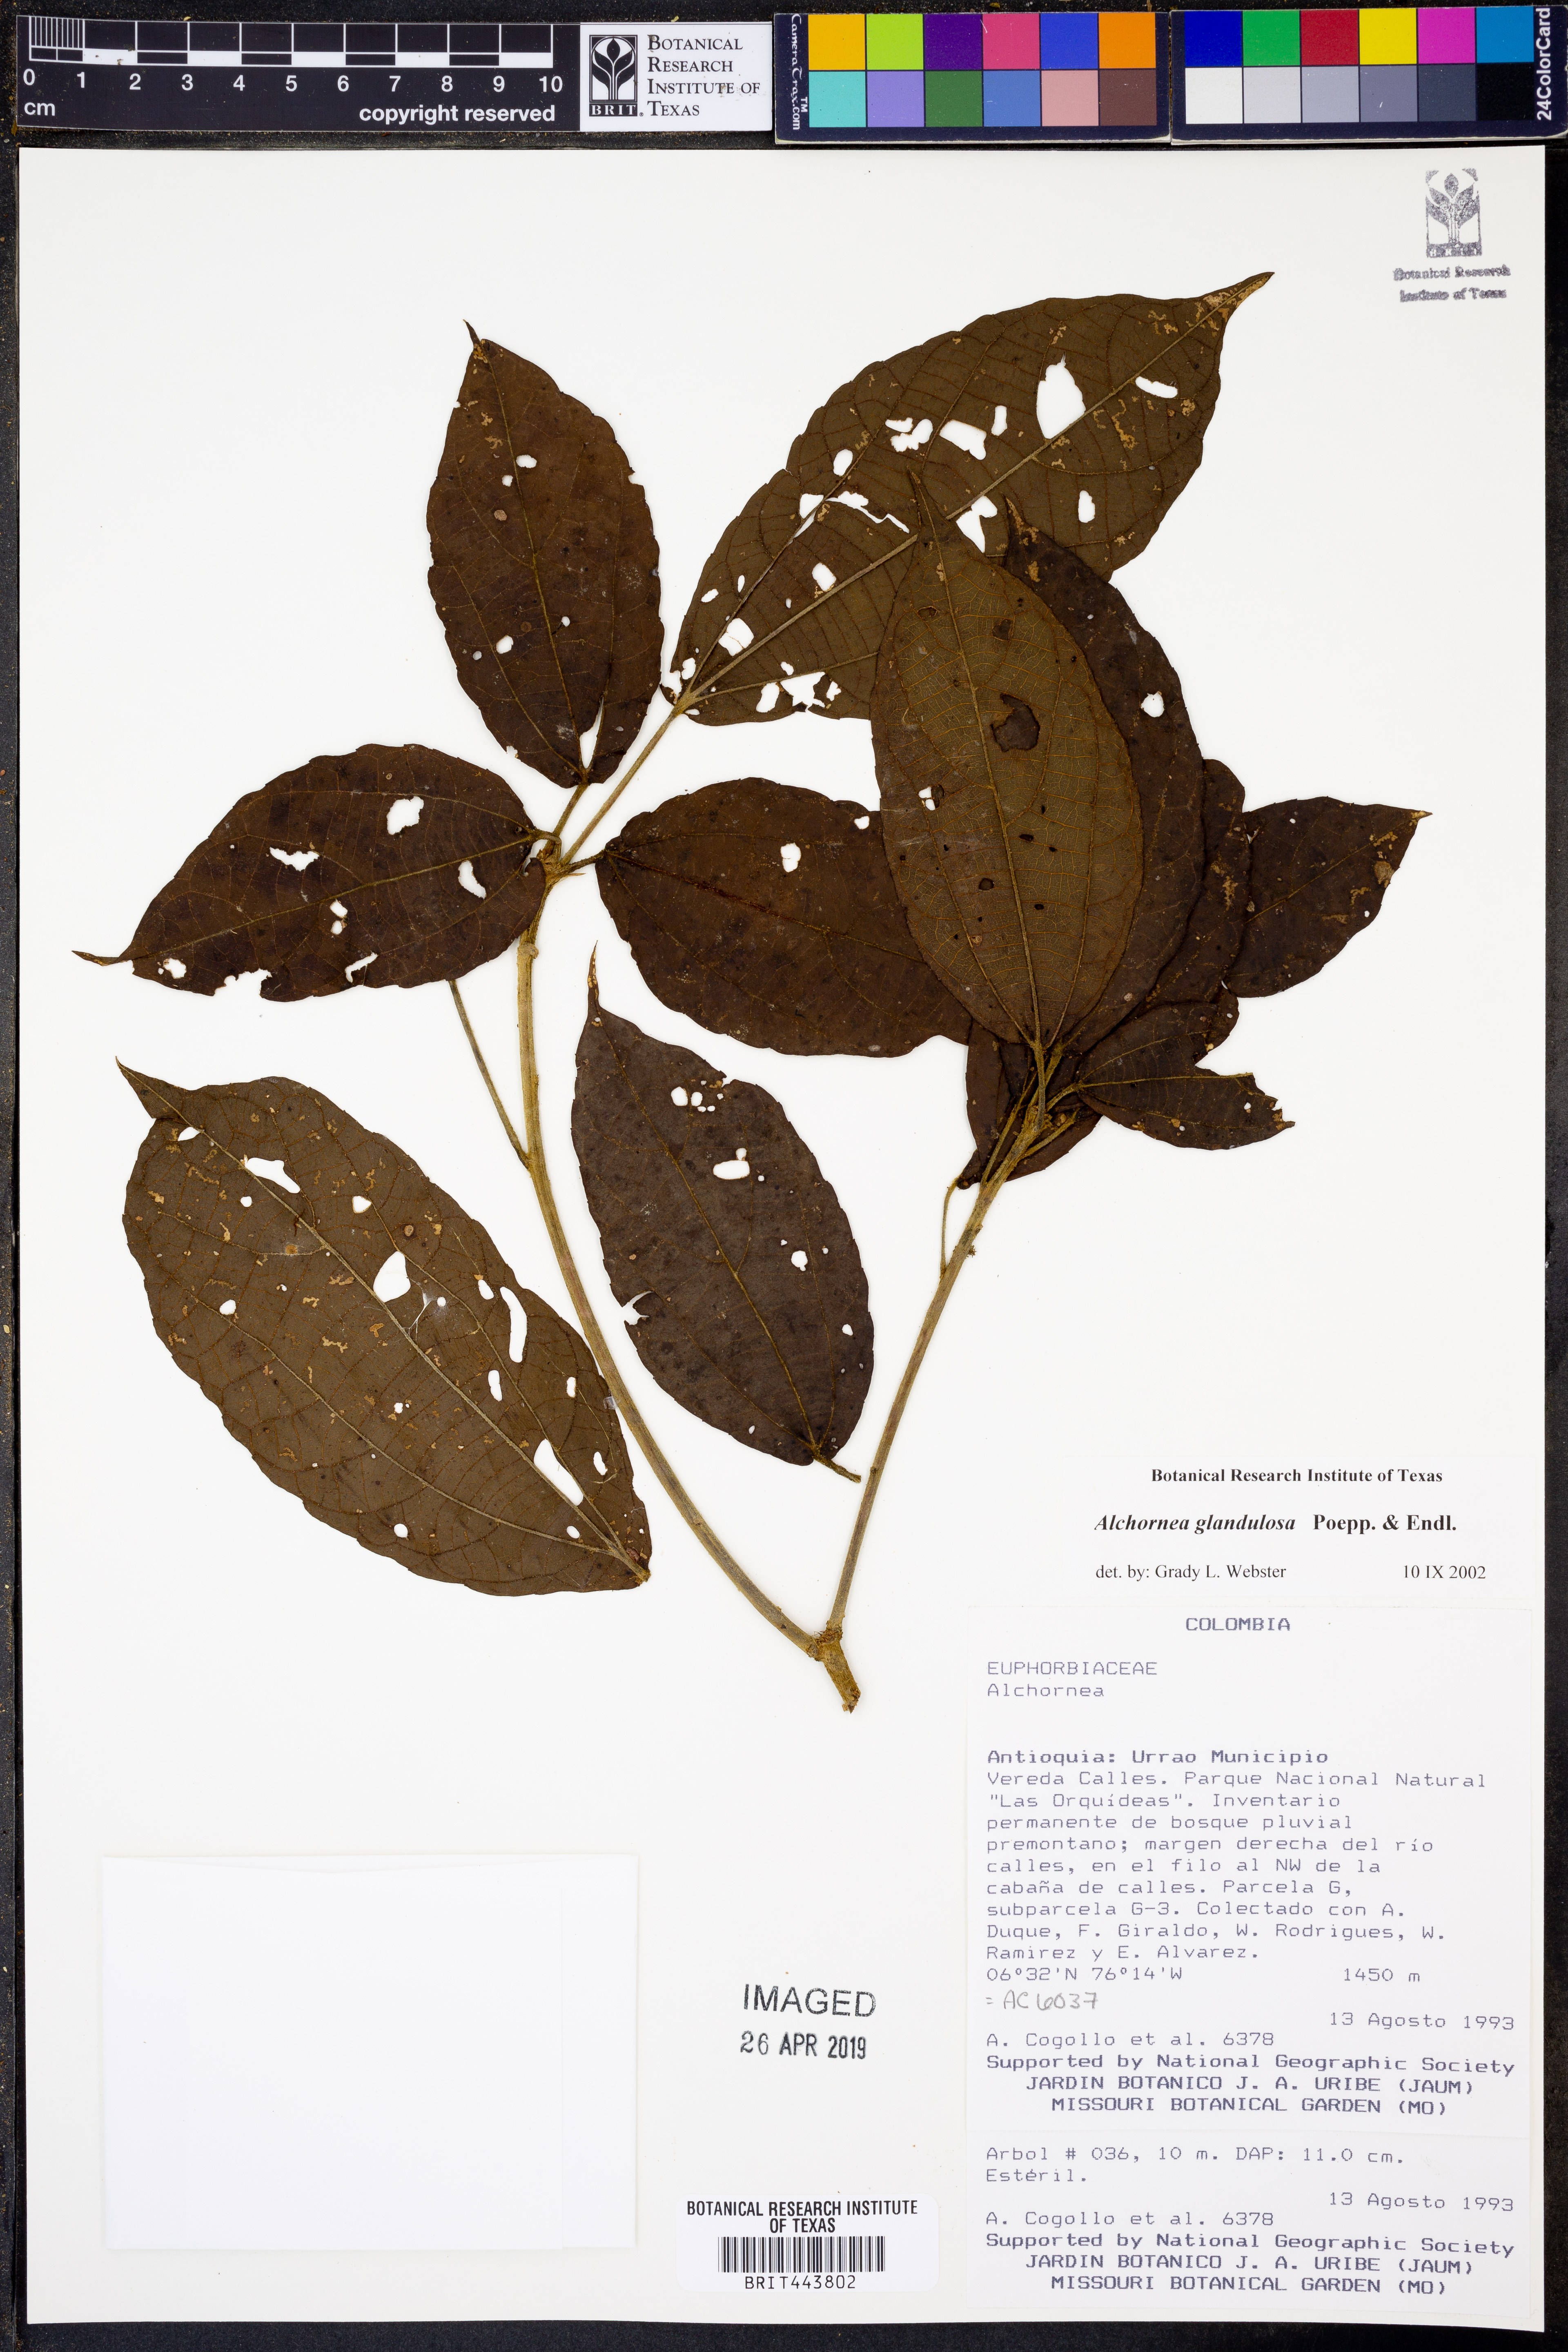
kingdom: Plantae
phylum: Tracheophyta
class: Magnoliopsida
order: Malpighiales
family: Euphorbiaceae
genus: Alchornea
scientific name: Alchornea glandulosa
